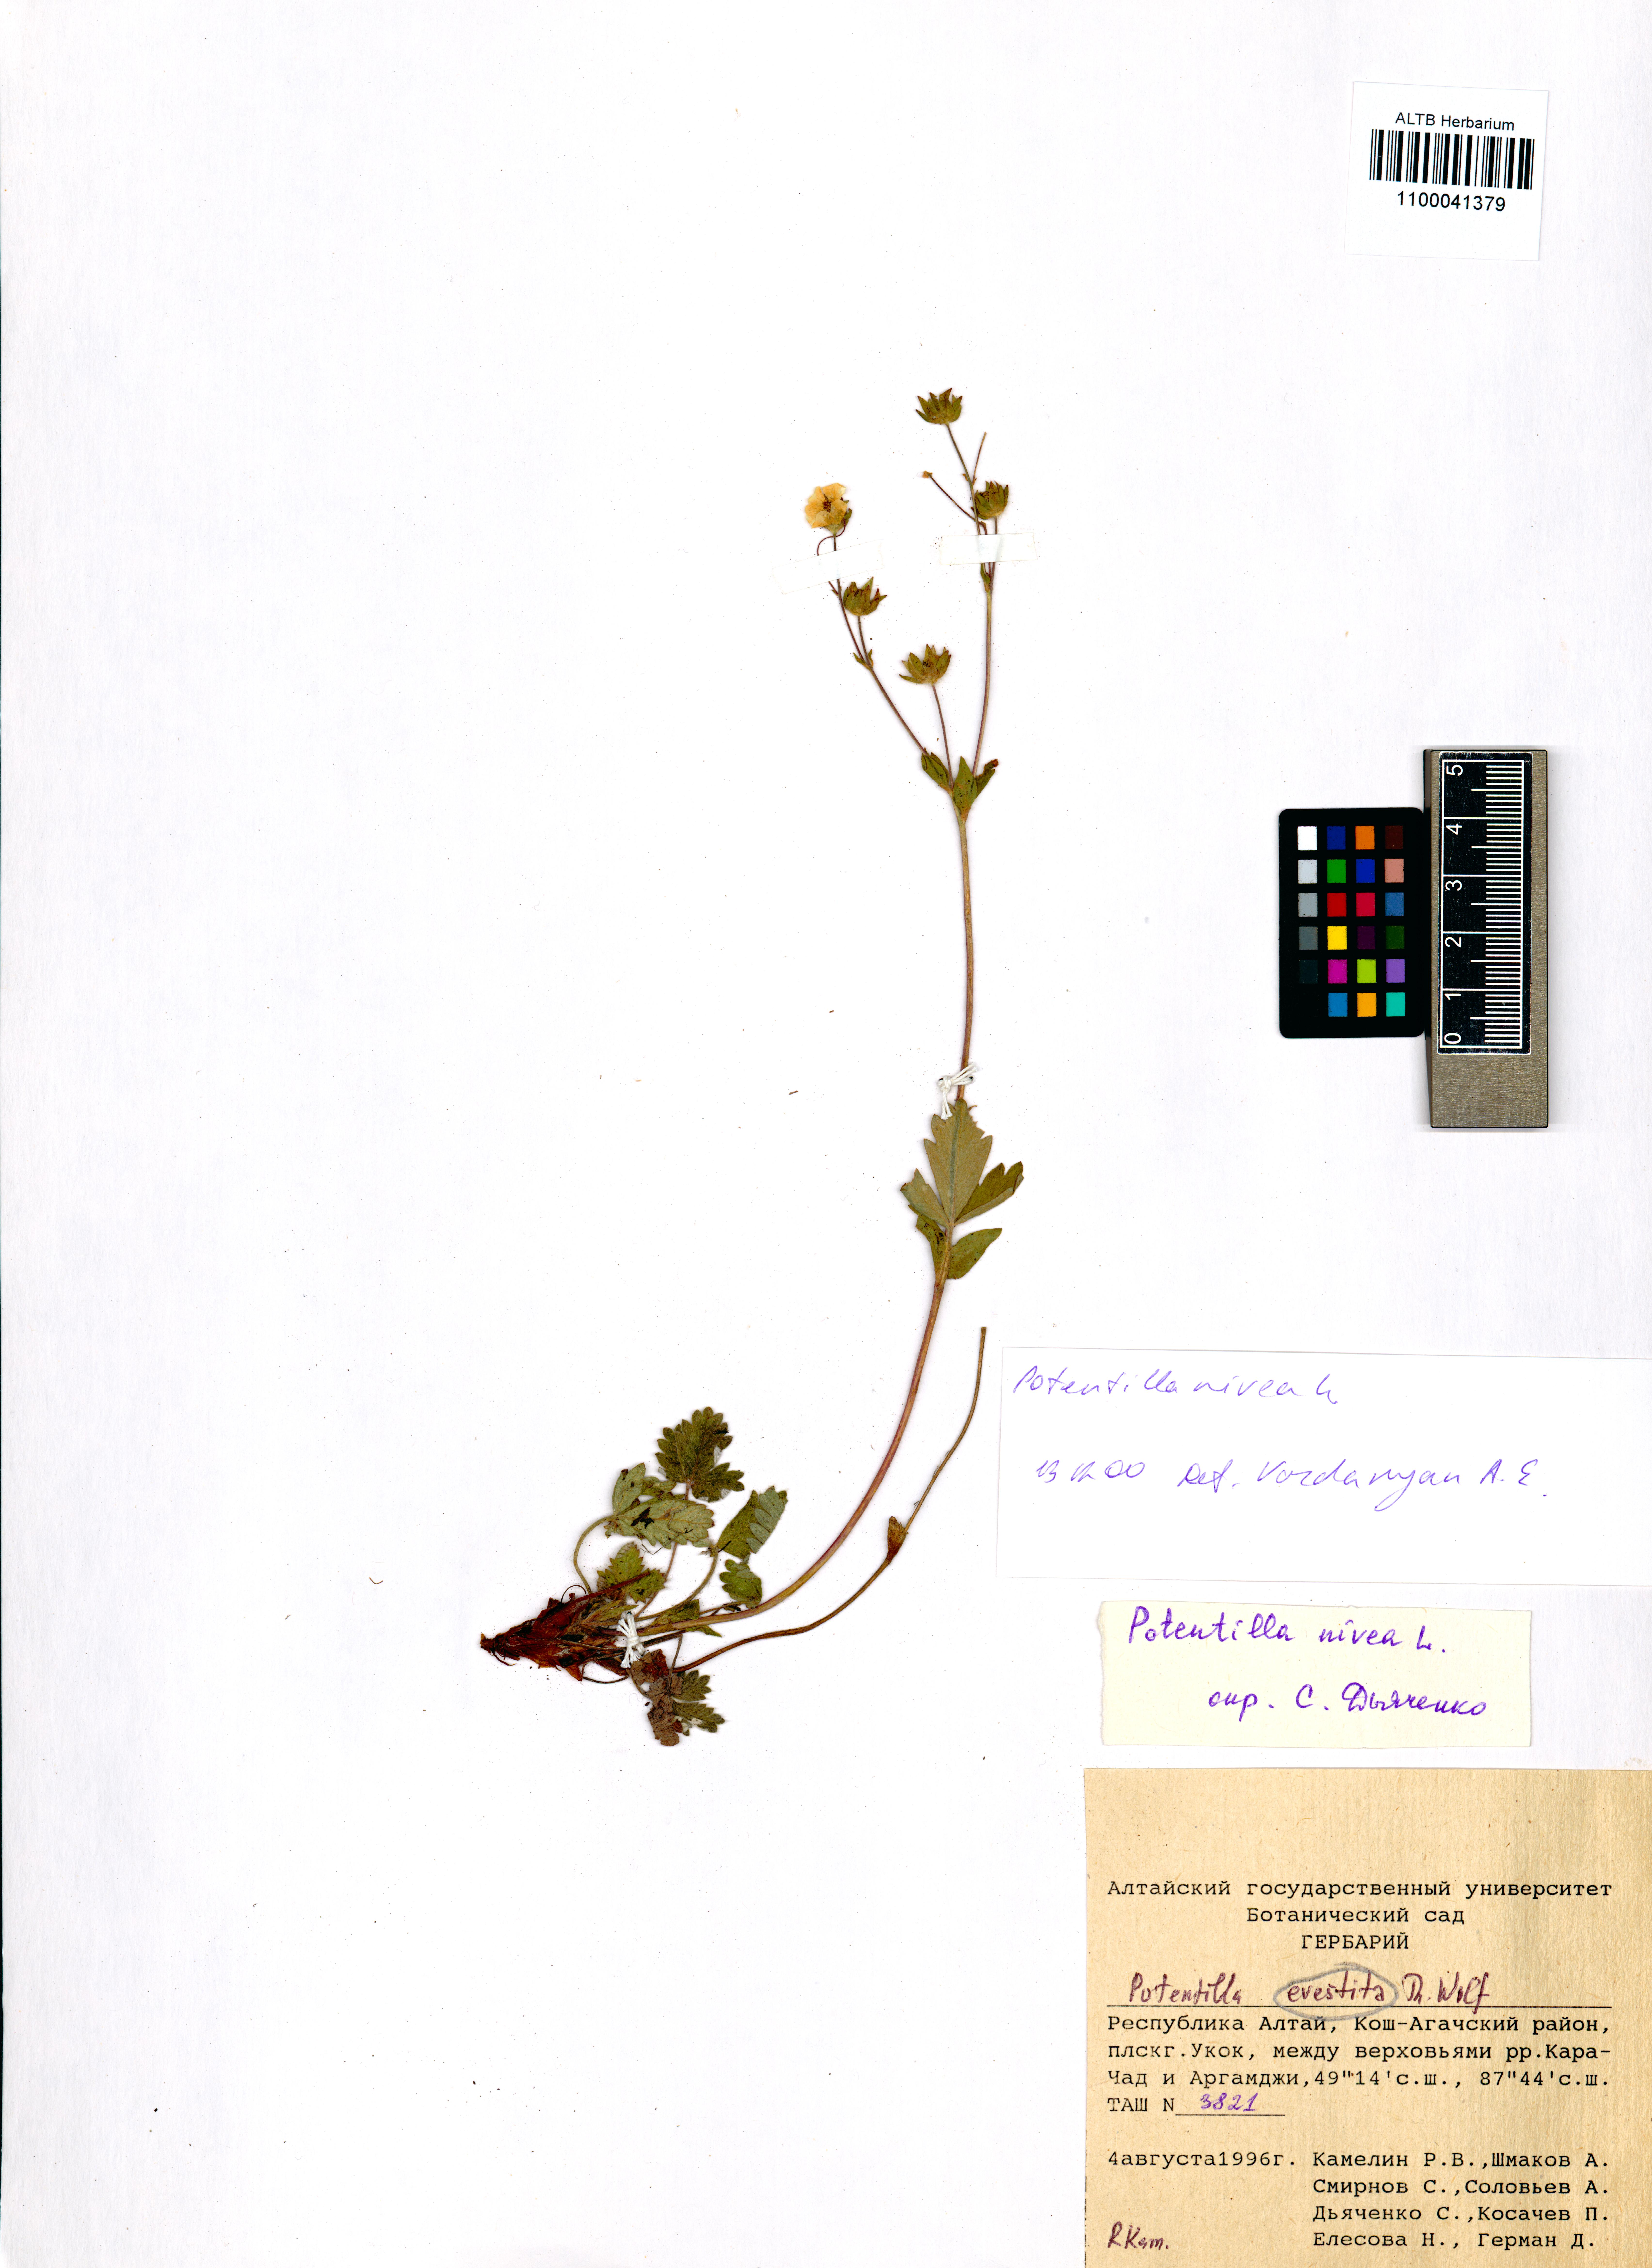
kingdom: Plantae
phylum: Tracheophyta
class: Magnoliopsida
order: Rosales
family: Rosaceae
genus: Potentilla
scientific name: Potentilla evestita
